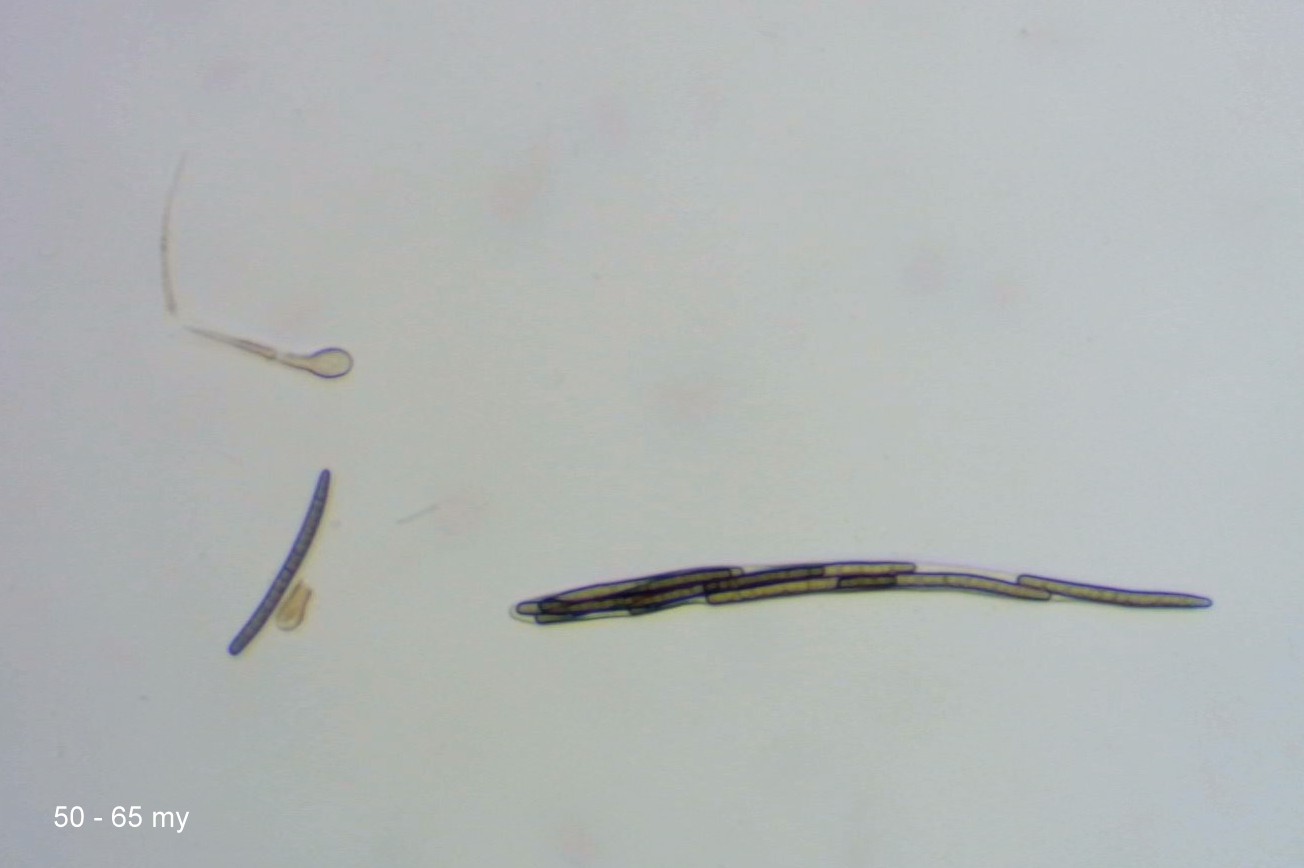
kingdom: Fungi
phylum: Ascomycota
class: Geoglossomycetes
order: Geoglossales
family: Geoglossaceae
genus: Glutinoglossum
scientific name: Glutinoglossum glutinosum
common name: slimet jordtunge
